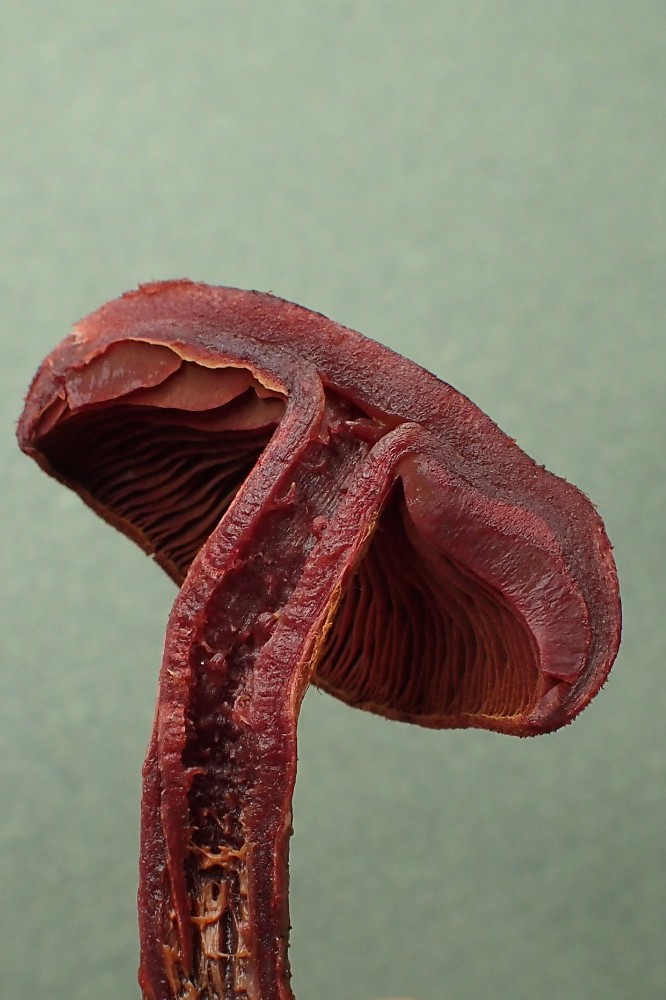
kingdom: Fungi
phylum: Basidiomycota
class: Agaricomycetes
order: Agaricales
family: Cortinariaceae
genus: Cortinarius
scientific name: Cortinarius sanguineus
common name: blodrød slørhat
